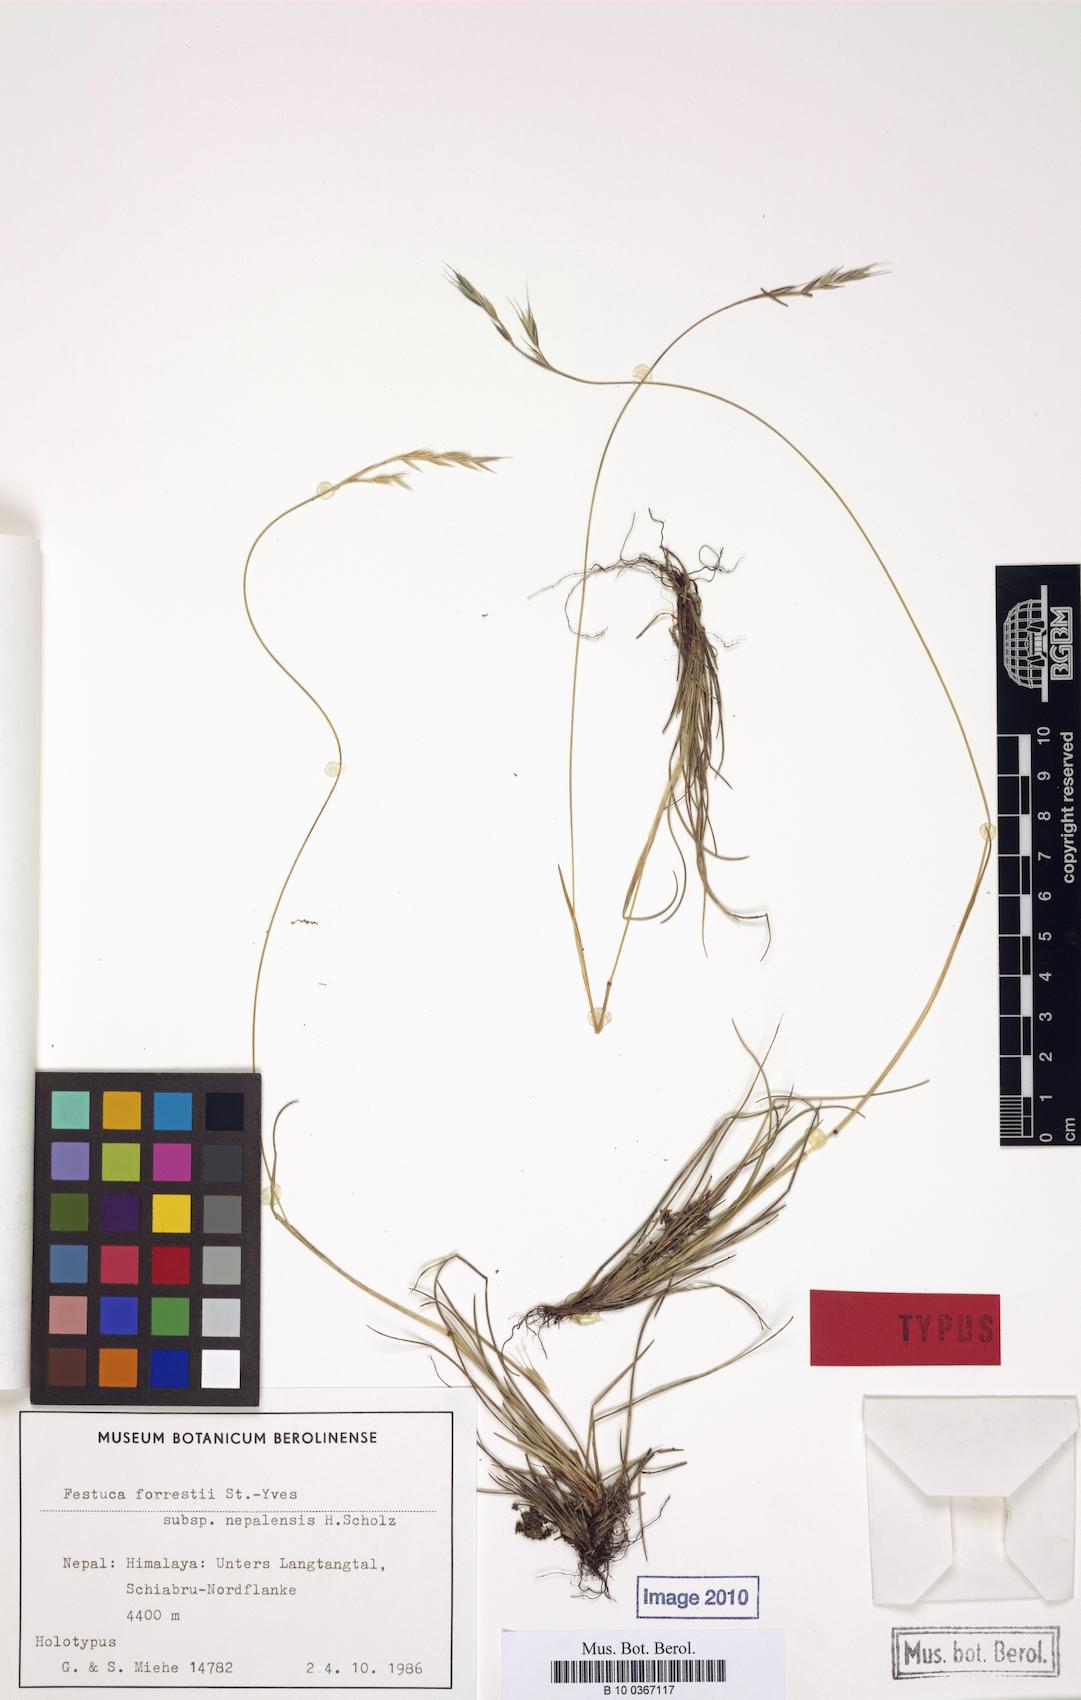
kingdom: Plantae
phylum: Tracheophyta
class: Liliopsida
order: Poales
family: Poaceae
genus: Festuca
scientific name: Festuca forrestii
